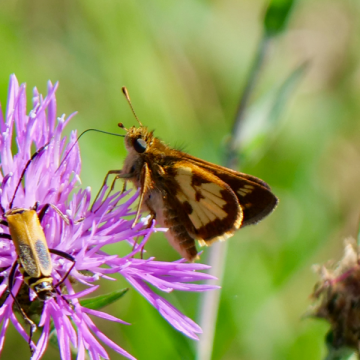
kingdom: Animalia
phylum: Arthropoda
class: Insecta
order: Lepidoptera
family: Hesperiidae
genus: Polites
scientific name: Polites coras
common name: Peck's Skipper
